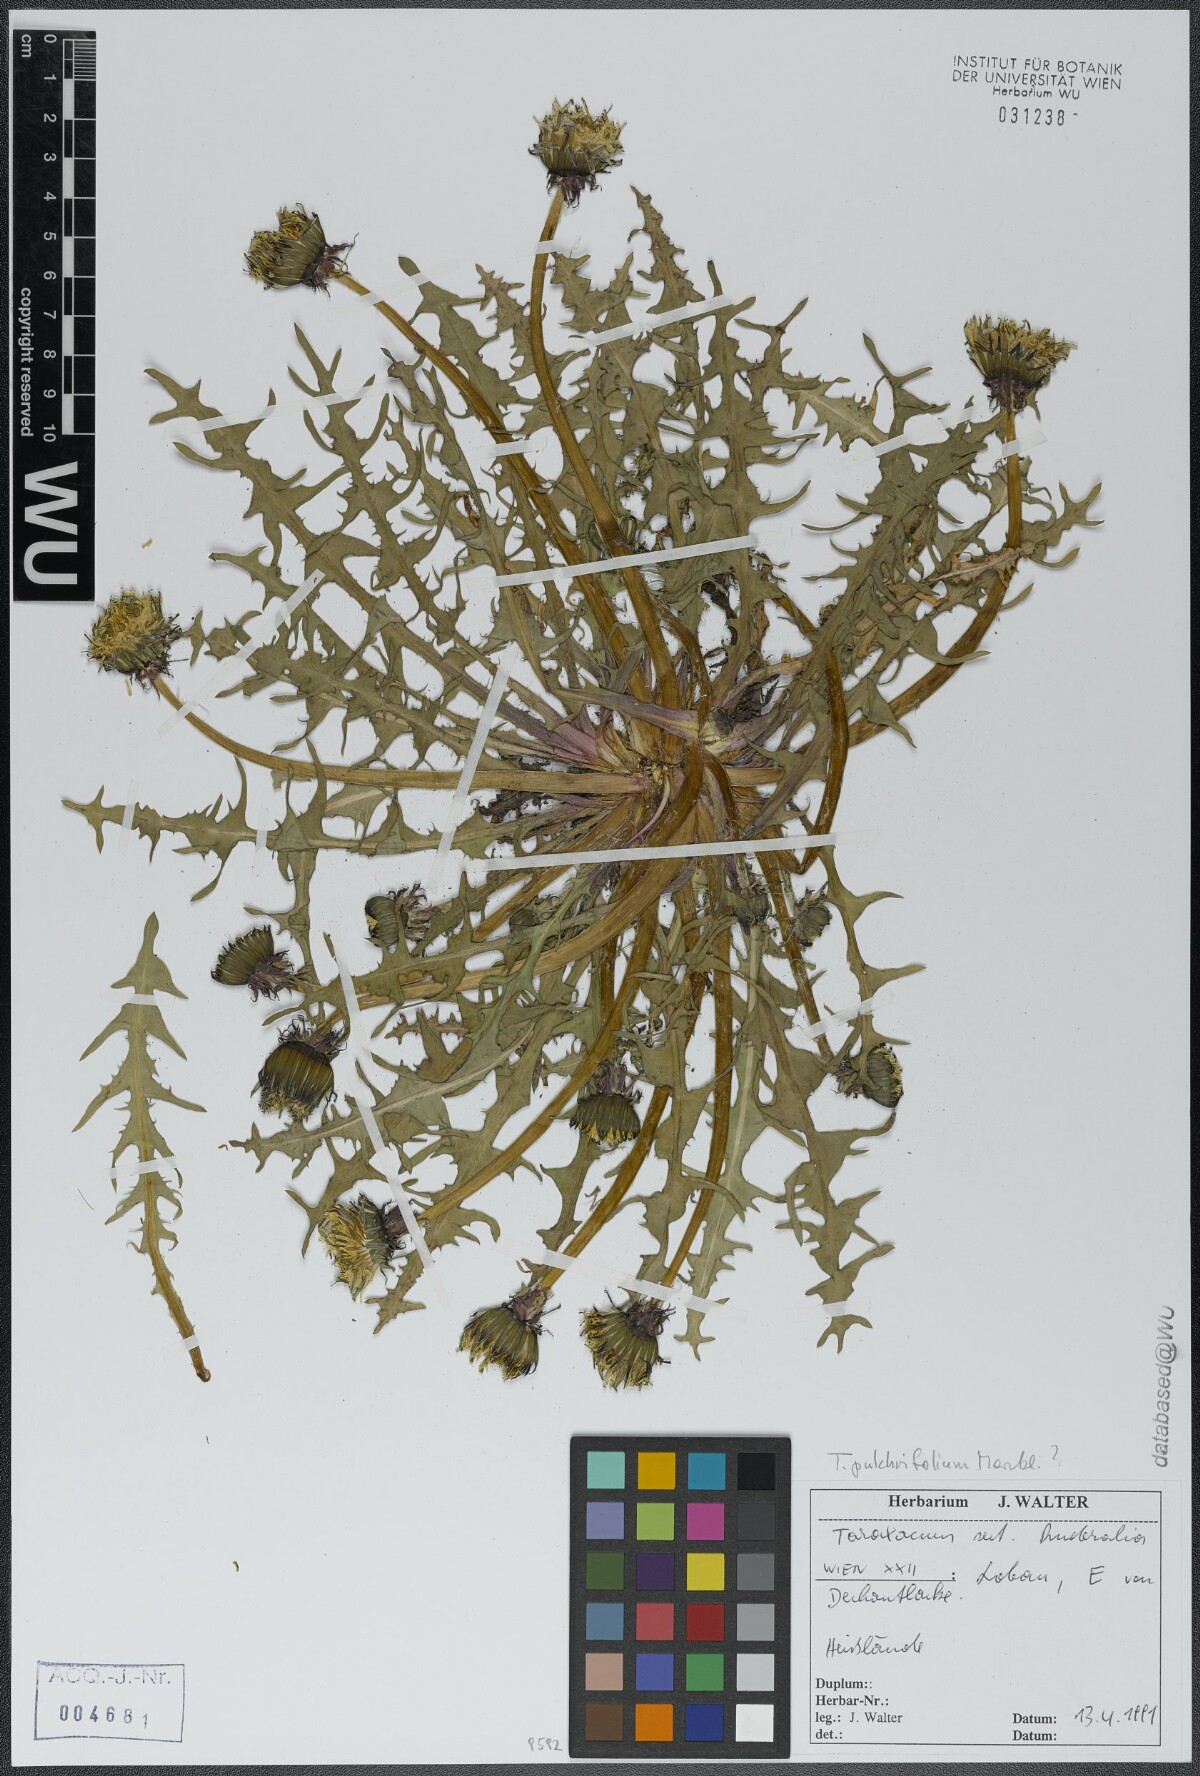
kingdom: Plantae
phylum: Tracheophyta
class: Magnoliopsida
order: Asterales
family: Asteraceae
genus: Taraxacum
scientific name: Taraxacum pulchrifolium
